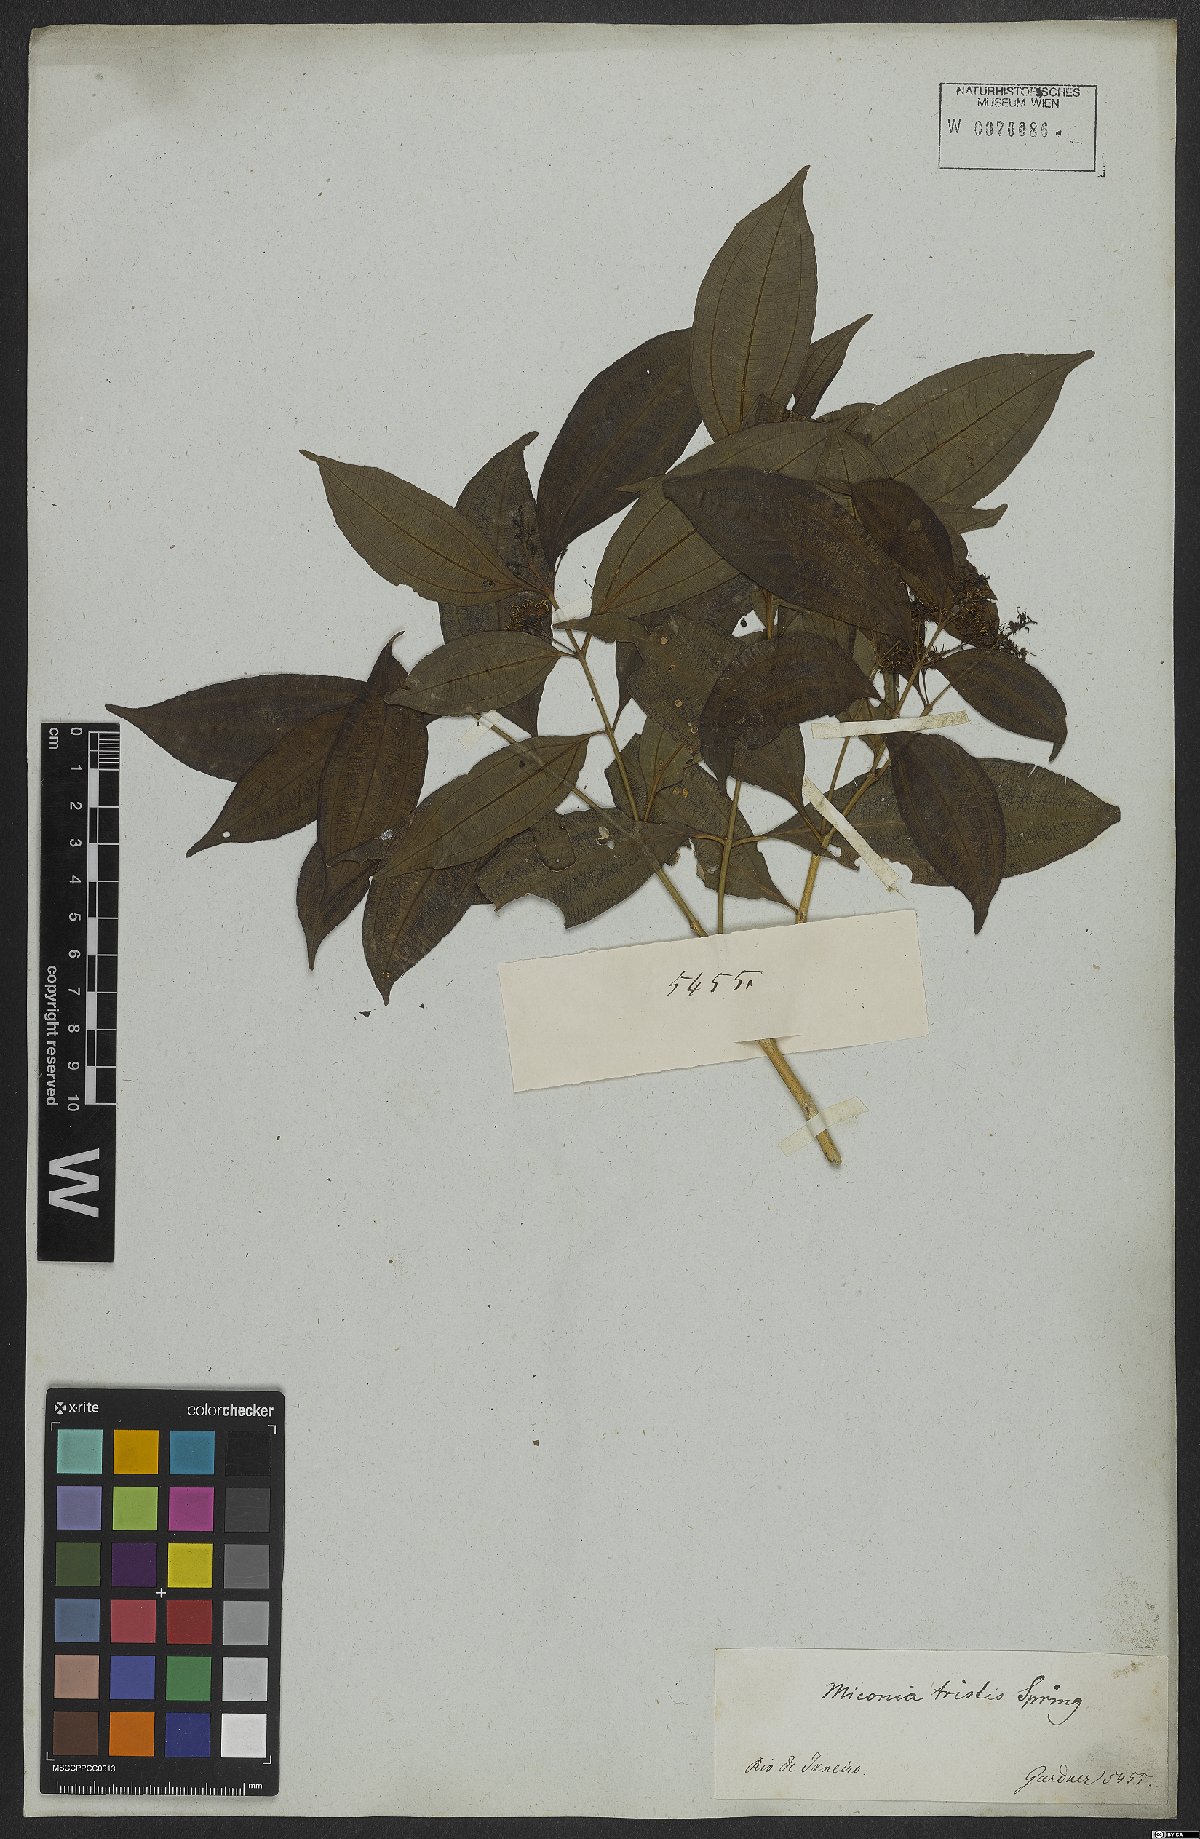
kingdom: Plantae
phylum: Tracheophyta
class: Magnoliopsida
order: Myrtales
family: Melastomataceae
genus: Miconia
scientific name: Miconia tristis
